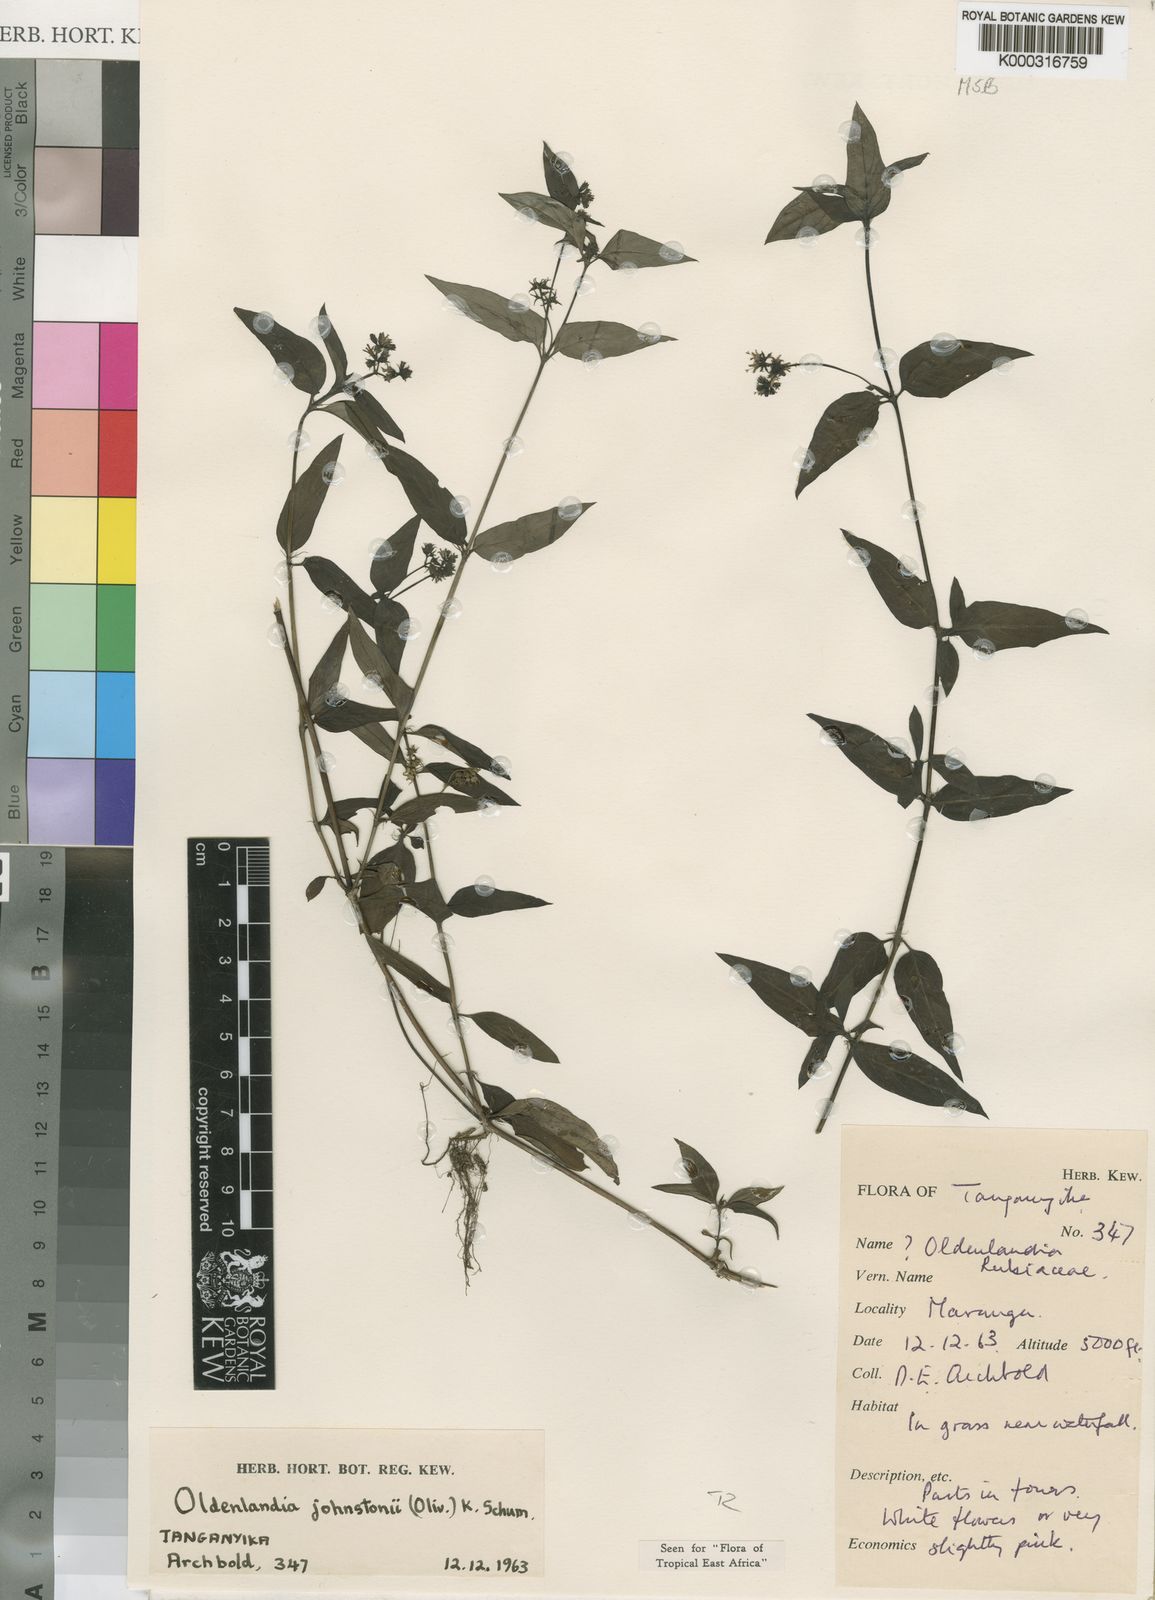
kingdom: Plantae
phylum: Tracheophyta
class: Magnoliopsida
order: Gentianales
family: Rubiaceae
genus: Oldenlandia
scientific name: Oldenlandia johnstonii
